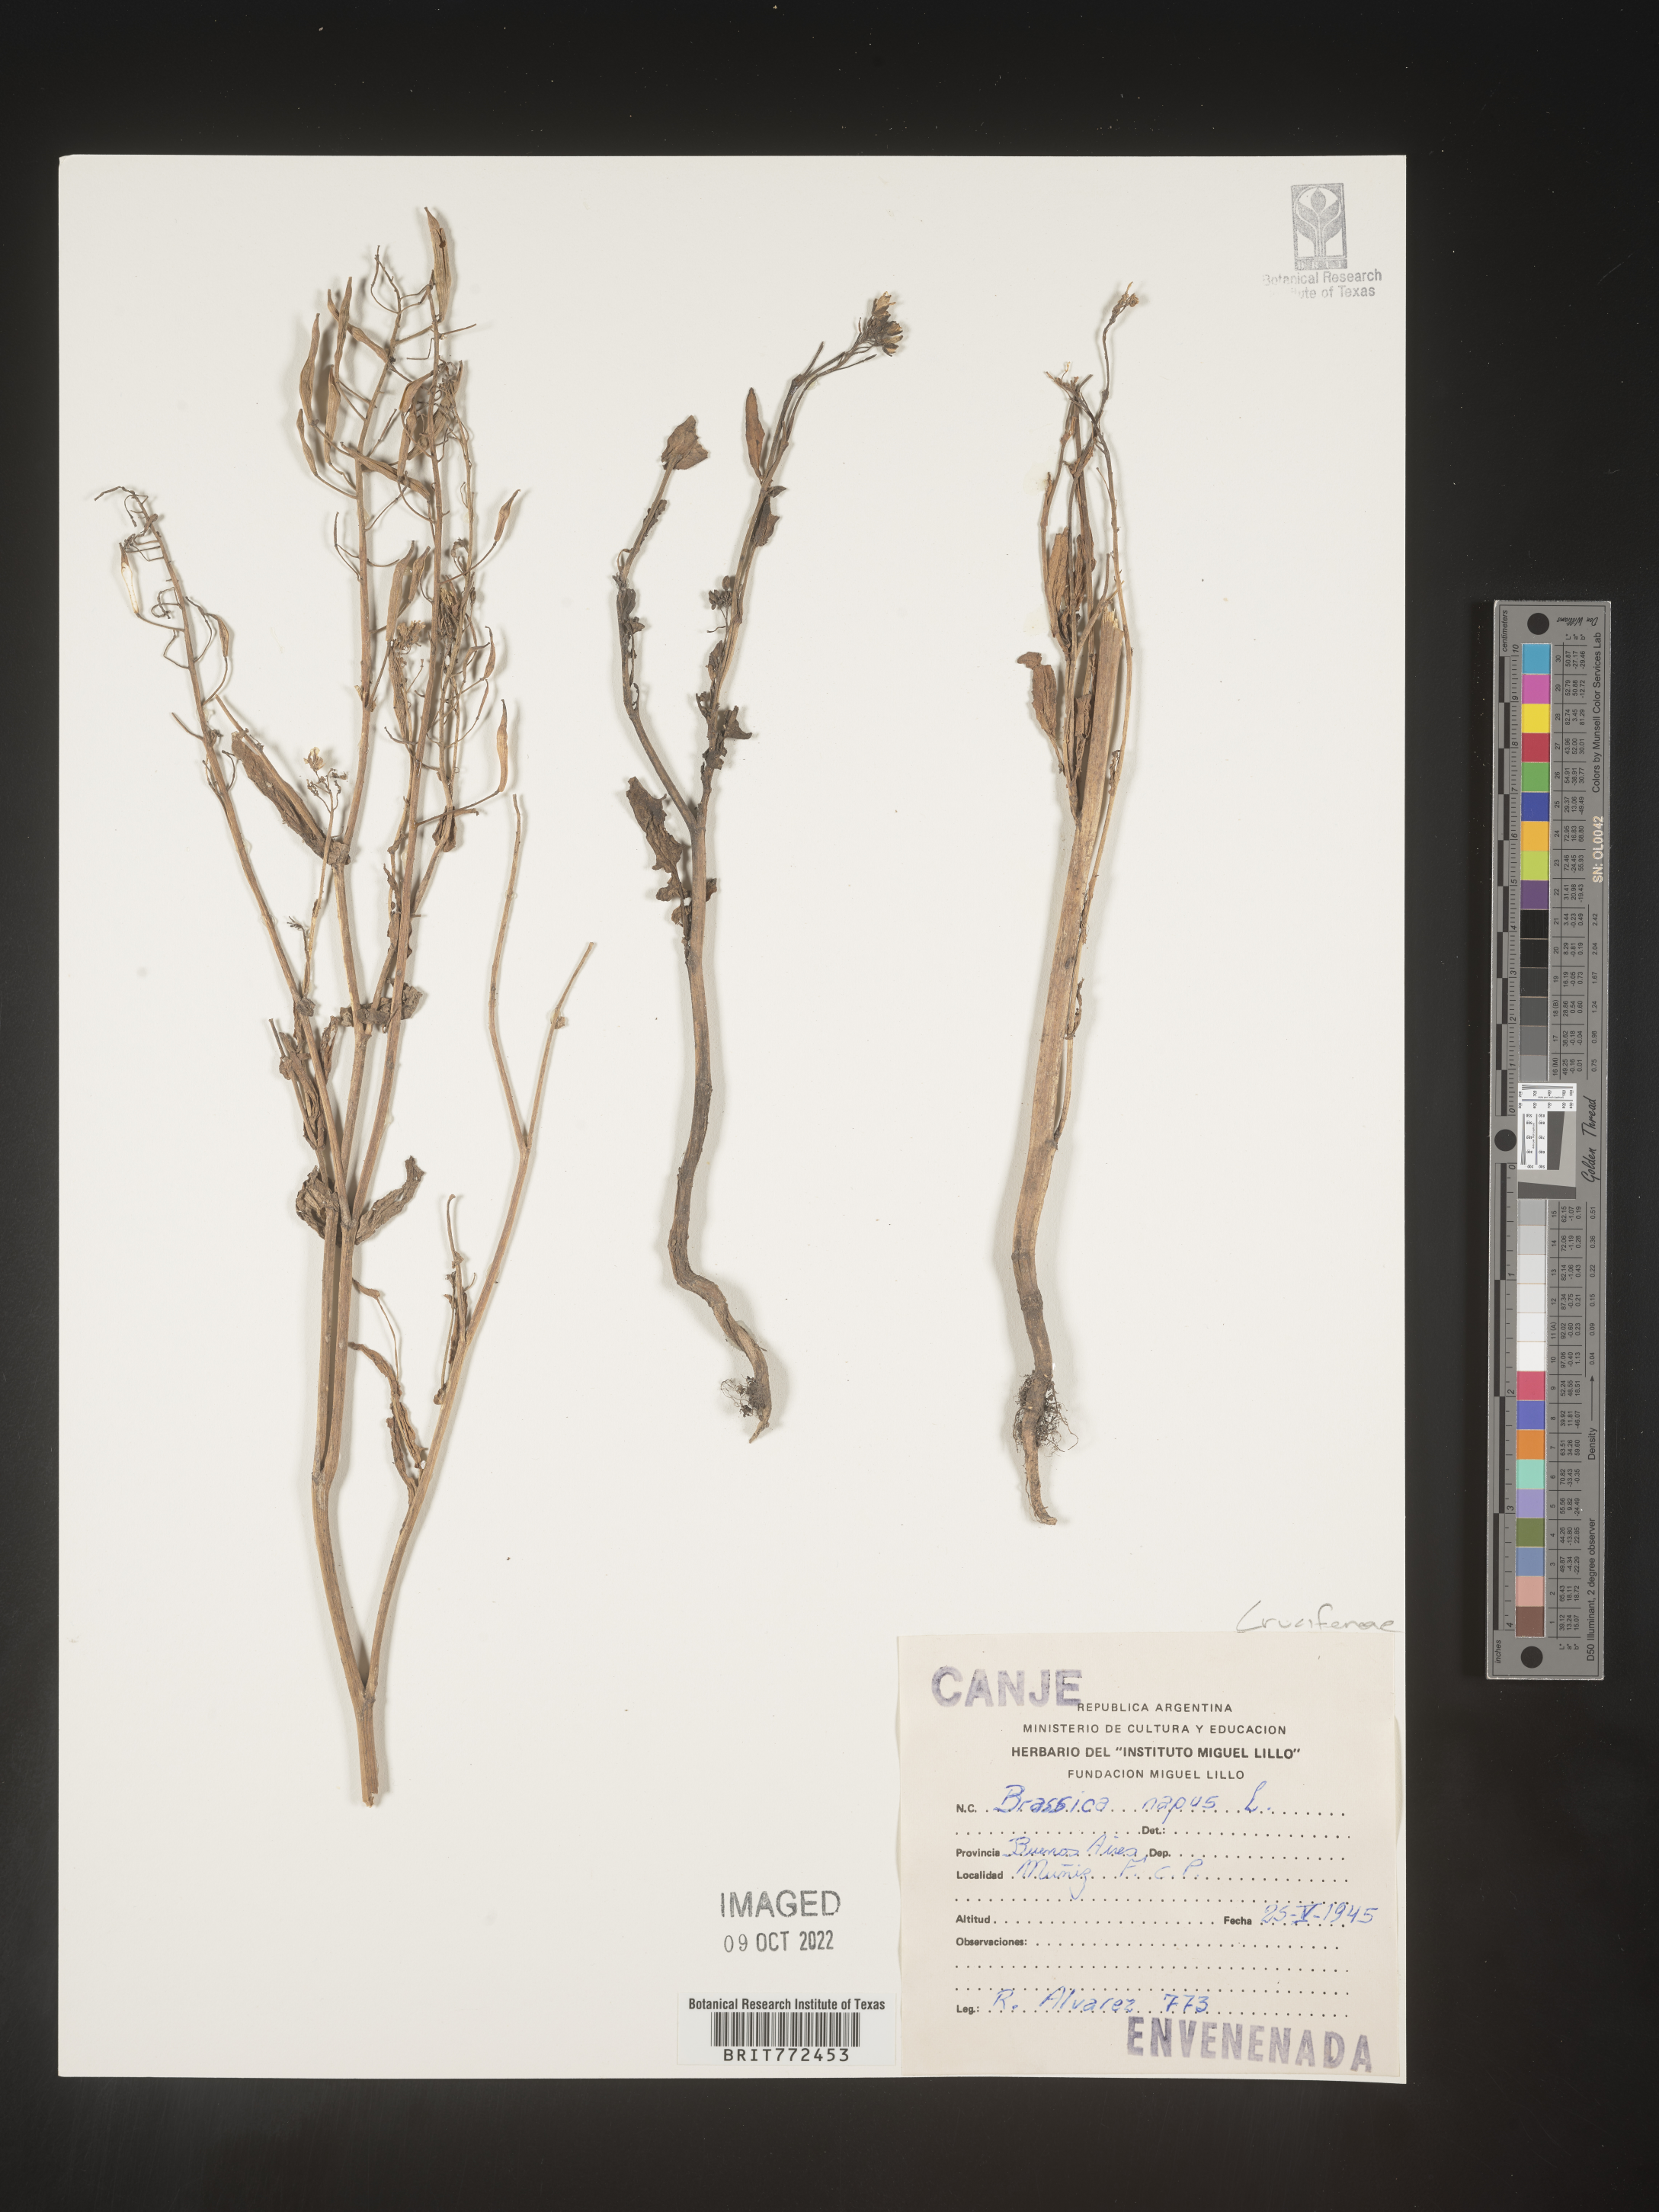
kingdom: Plantae
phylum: Tracheophyta
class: Magnoliopsida
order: Brassicales
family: Brassicaceae
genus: Brassica
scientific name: Brassica
